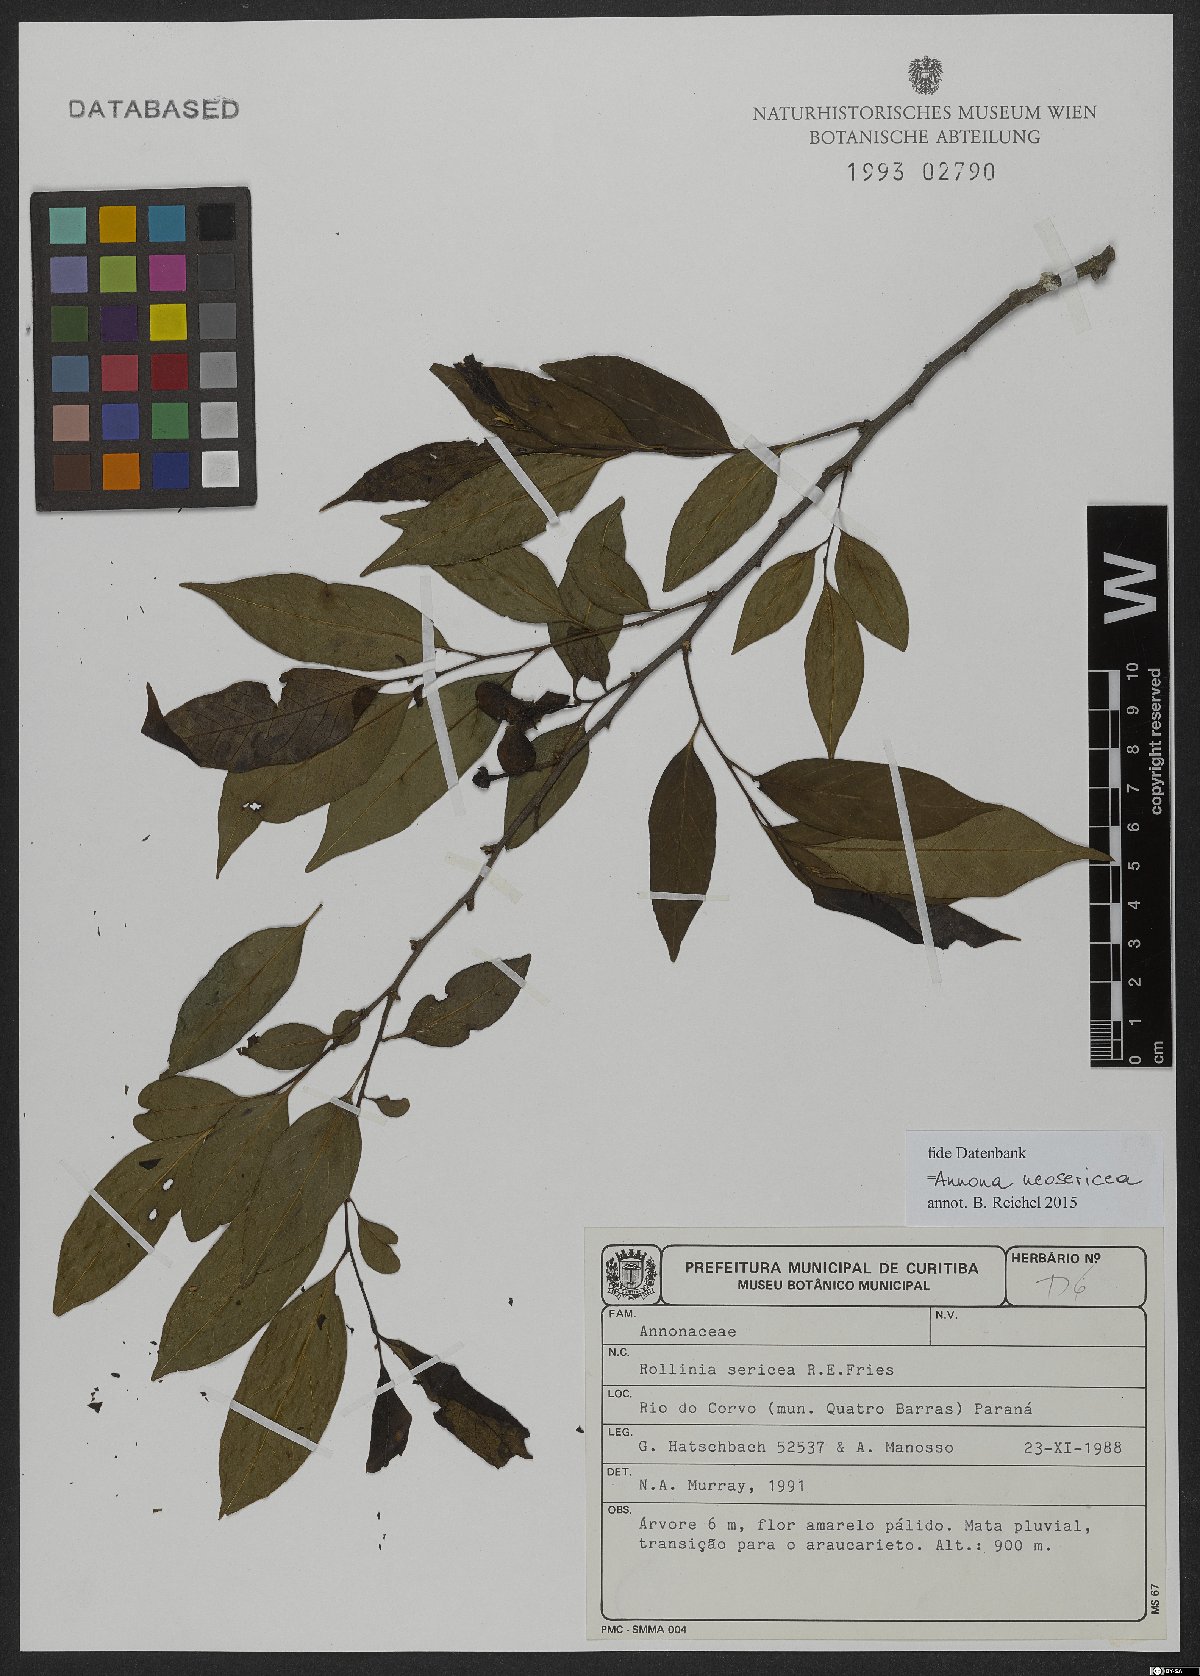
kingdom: Plantae
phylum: Tracheophyta
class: Magnoliopsida
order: Magnoliales
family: Annonaceae
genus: Annona
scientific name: Annona neosericea
